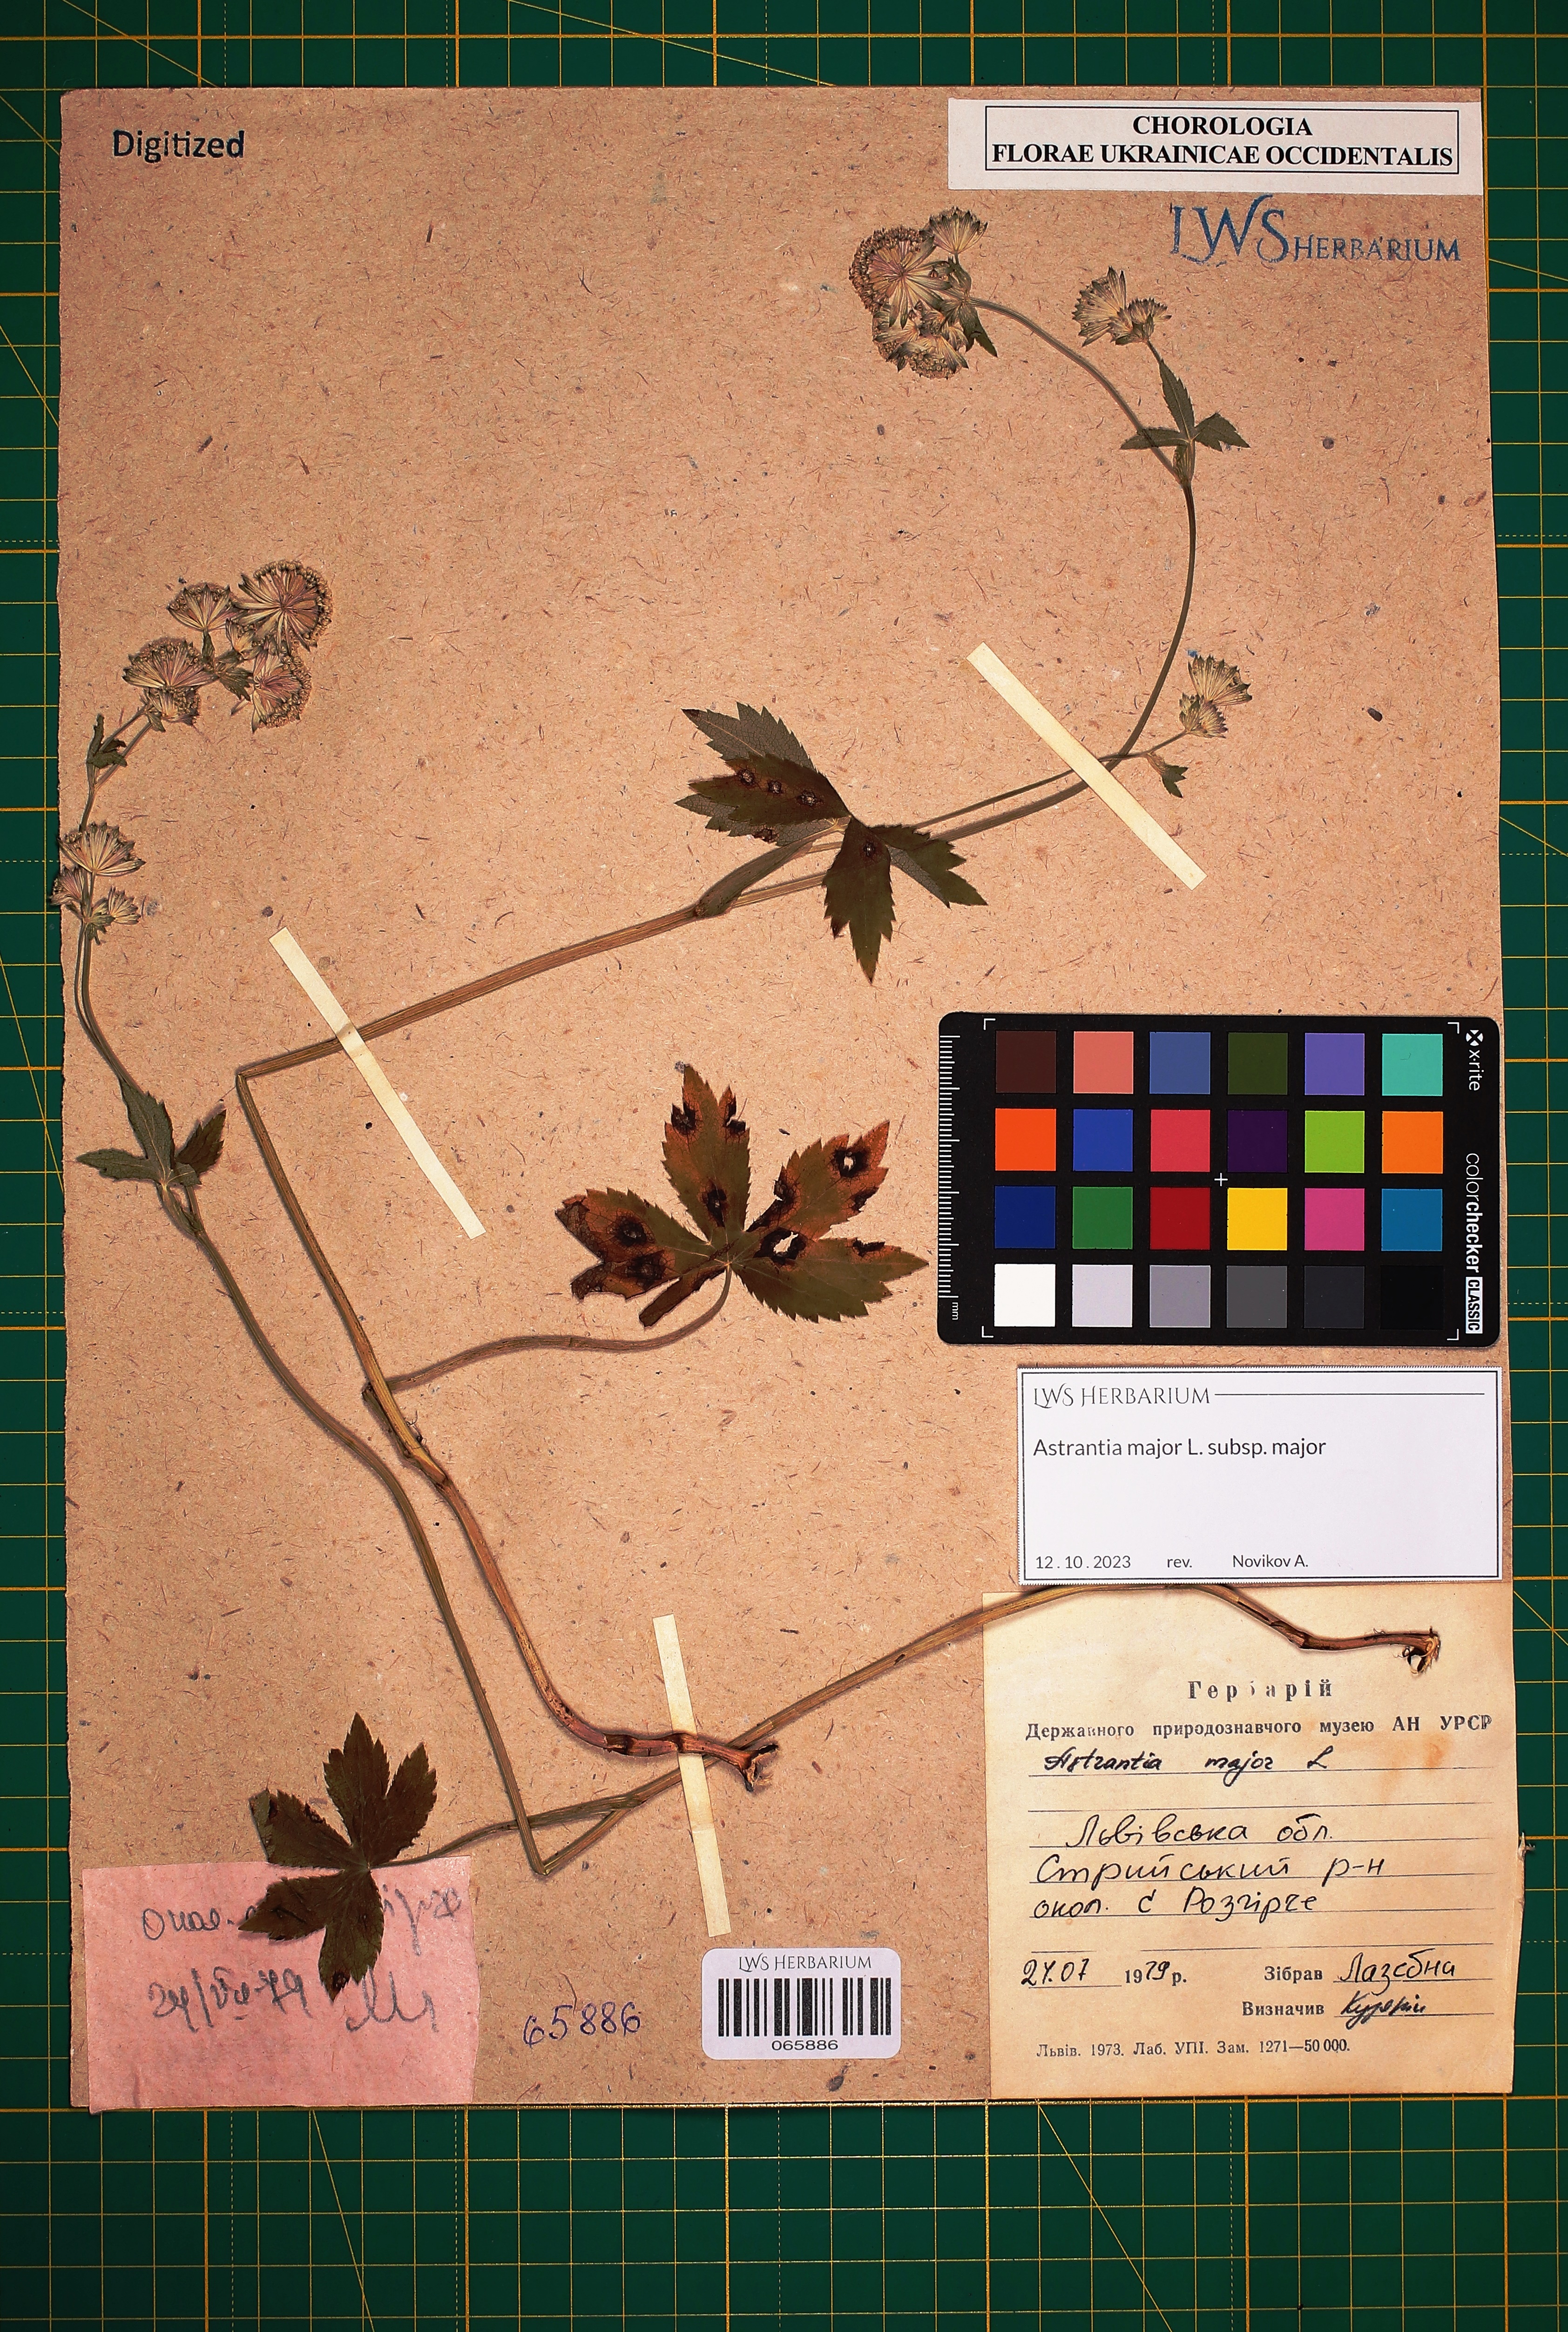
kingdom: Plantae
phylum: Tracheophyta
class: Magnoliopsida
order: Apiales
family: Apiaceae
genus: Astrantia
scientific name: Astrantia major
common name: Greater masterwort
